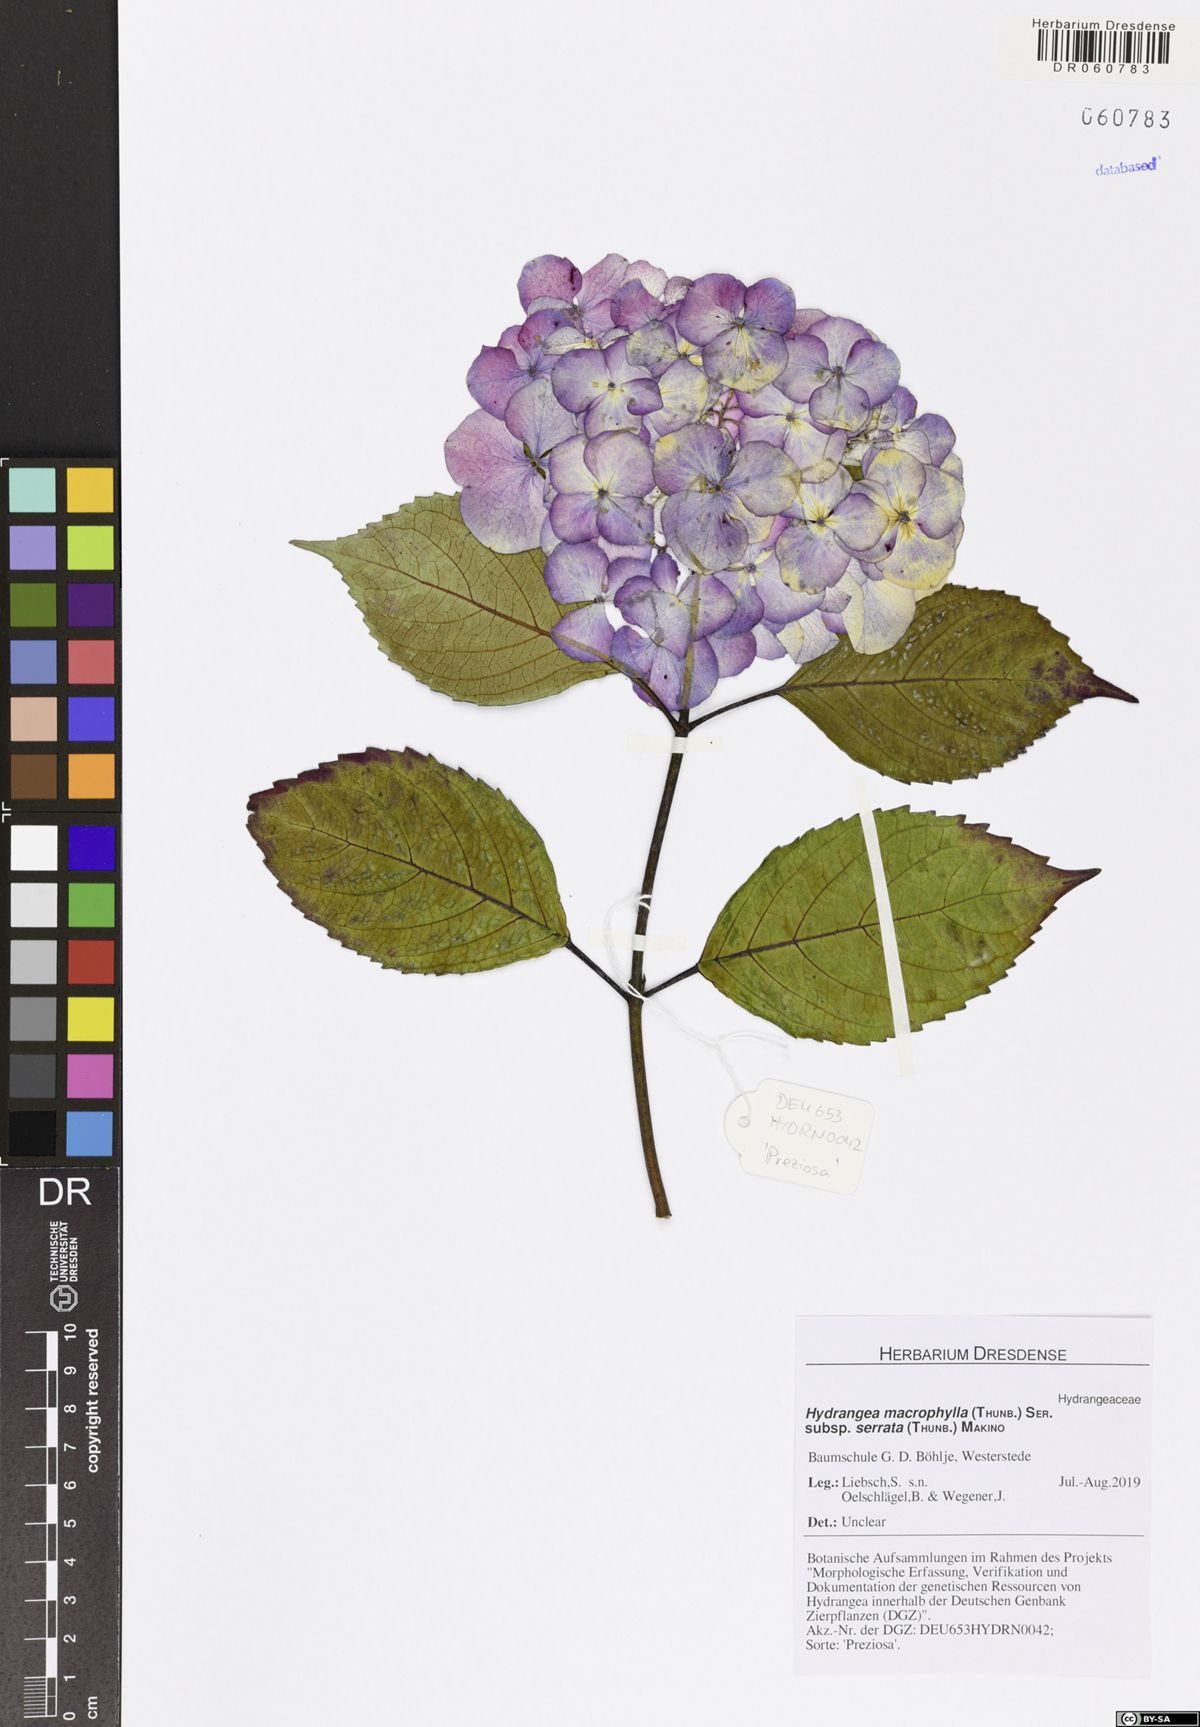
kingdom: Plantae
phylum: Tracheophyta
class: Magnoliopsida
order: Cornales
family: Hydrangeaceae
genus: Hydrangea
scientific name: Hydrangea serrata
